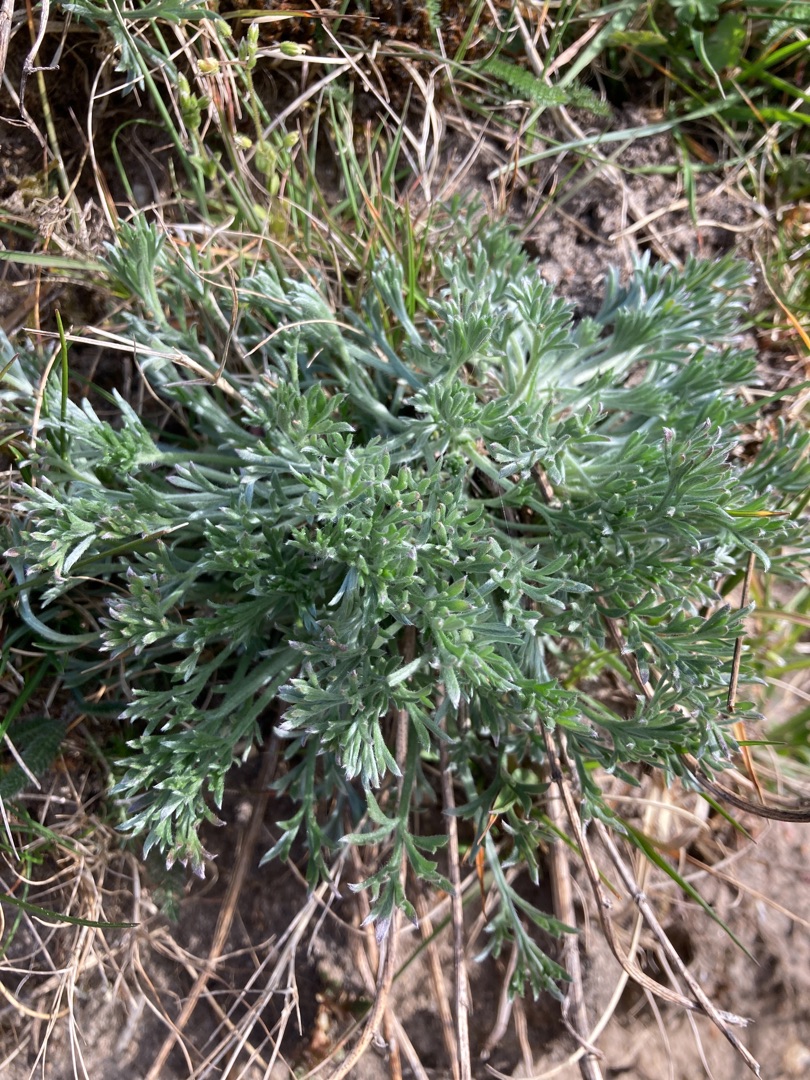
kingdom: Plantae
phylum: Tracheophyta
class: Magnoliopsida
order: Asterales
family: Asteraceae
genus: Artemisia
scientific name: Artemisia campestris
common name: Mark-bynke
